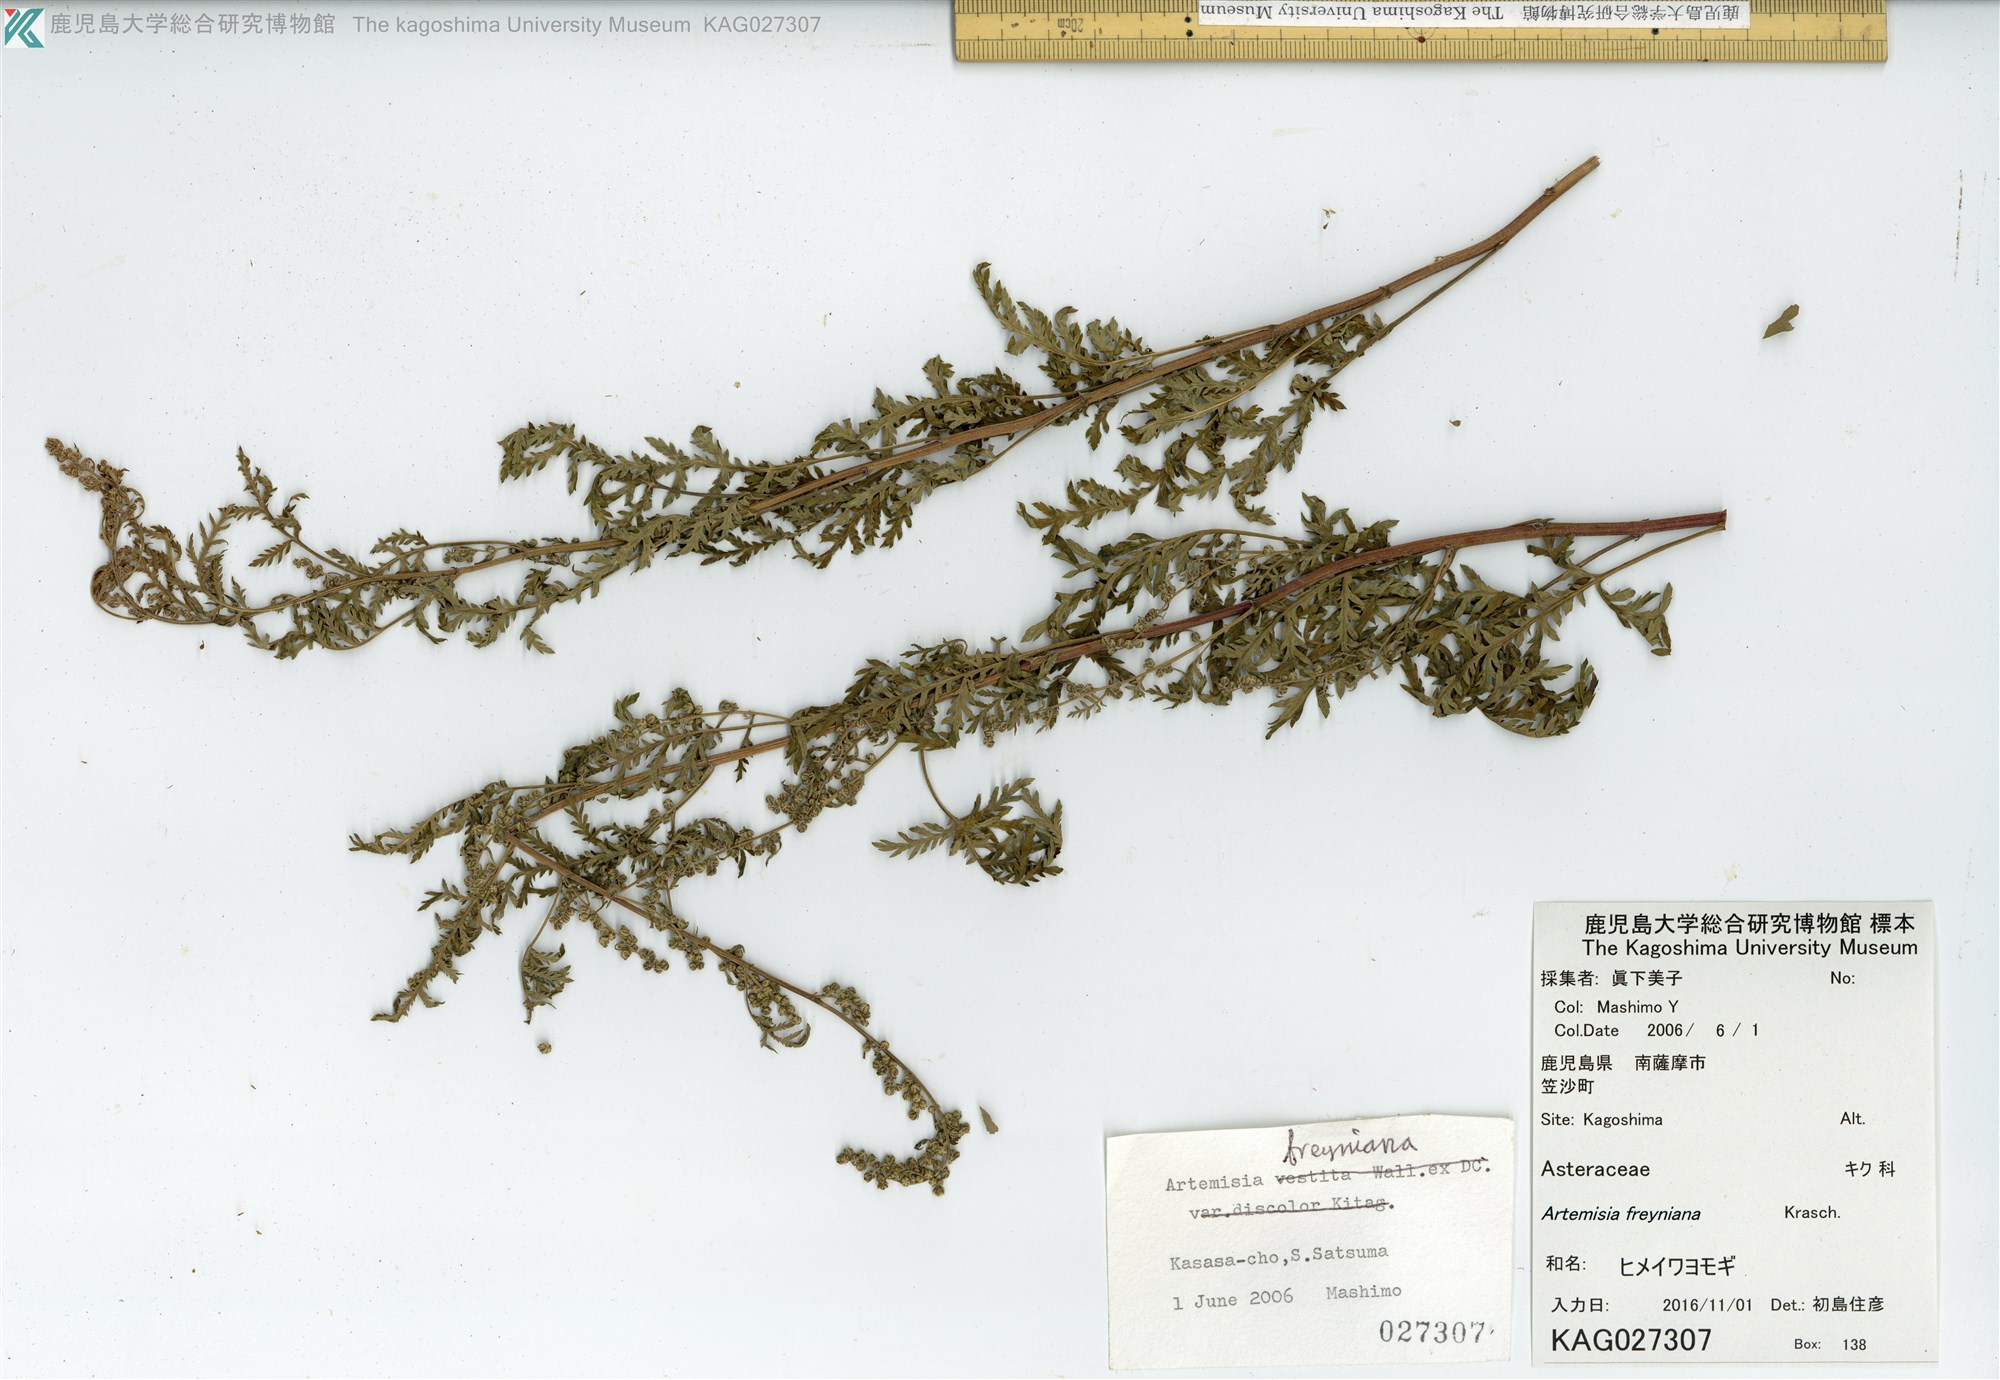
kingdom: Plantae
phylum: Tracheophyta
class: Magnoliopsida
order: Asterales
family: Asteraceae
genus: Artemisia
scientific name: Artemisia freyniana
